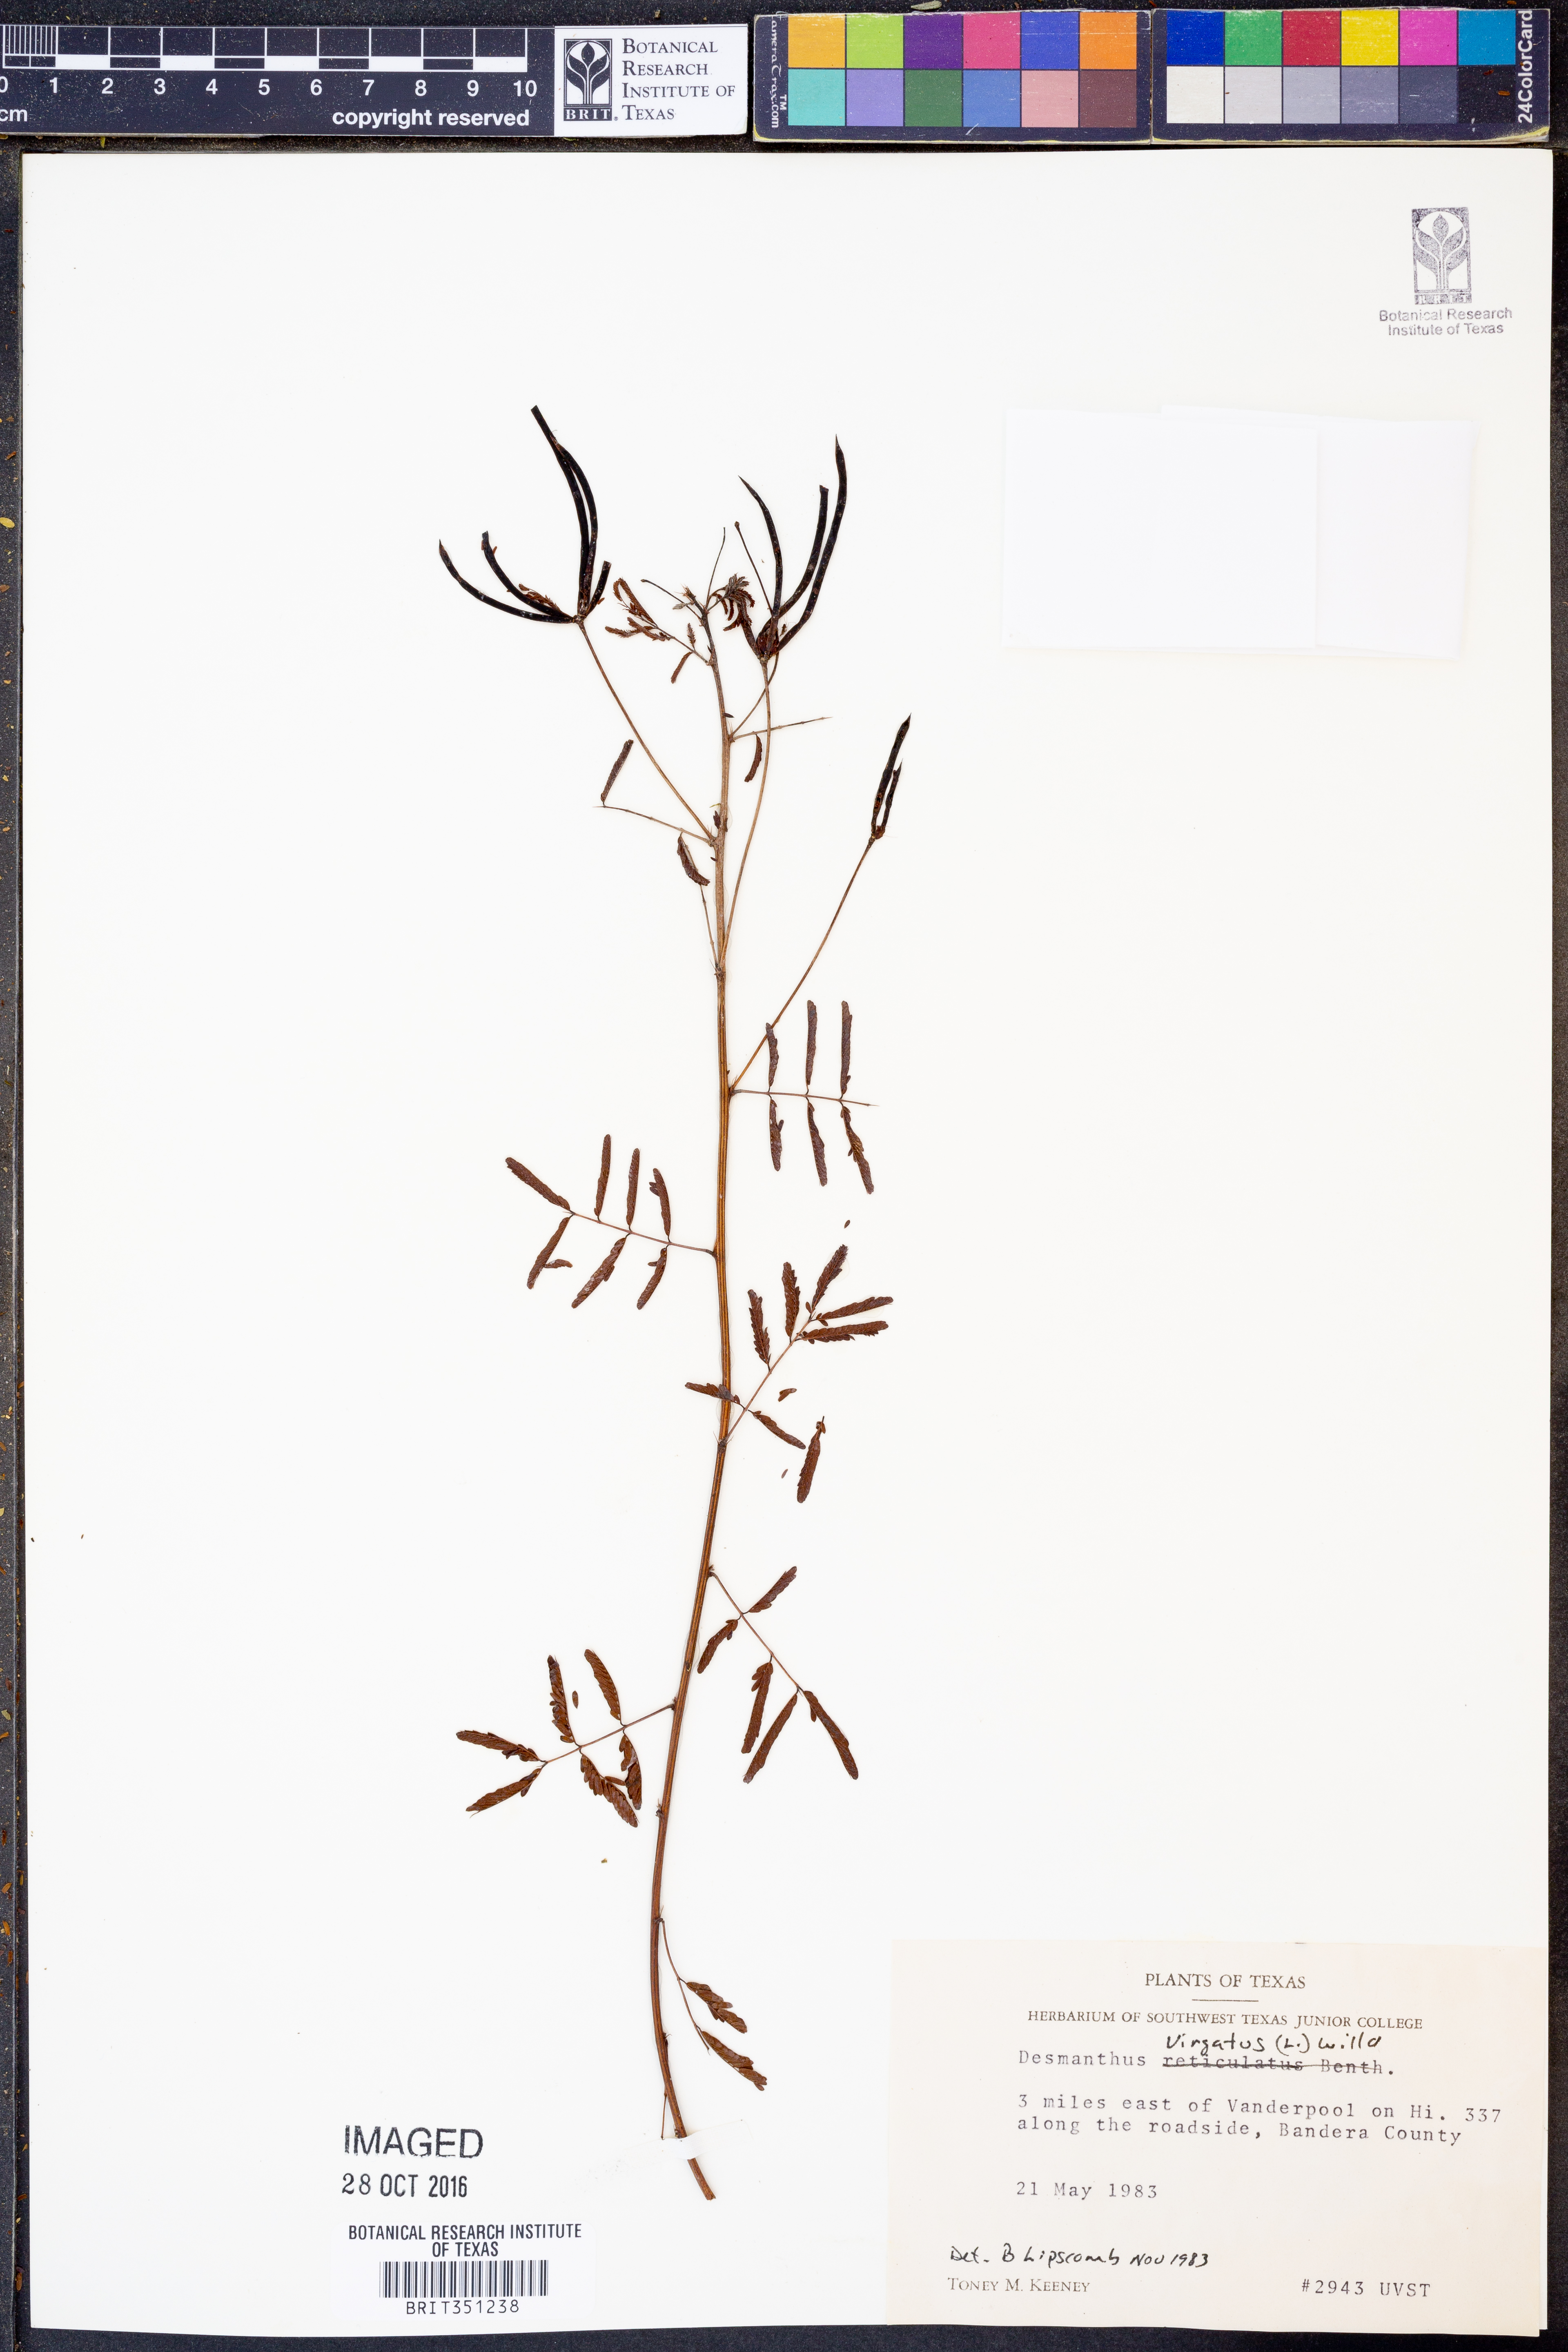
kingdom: Plantae
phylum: Tracheophyta
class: Magnoliopsida
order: Fabales
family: Fabaceae
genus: Desmanthus
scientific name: Desmanthus virgatus
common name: Wild tantan
